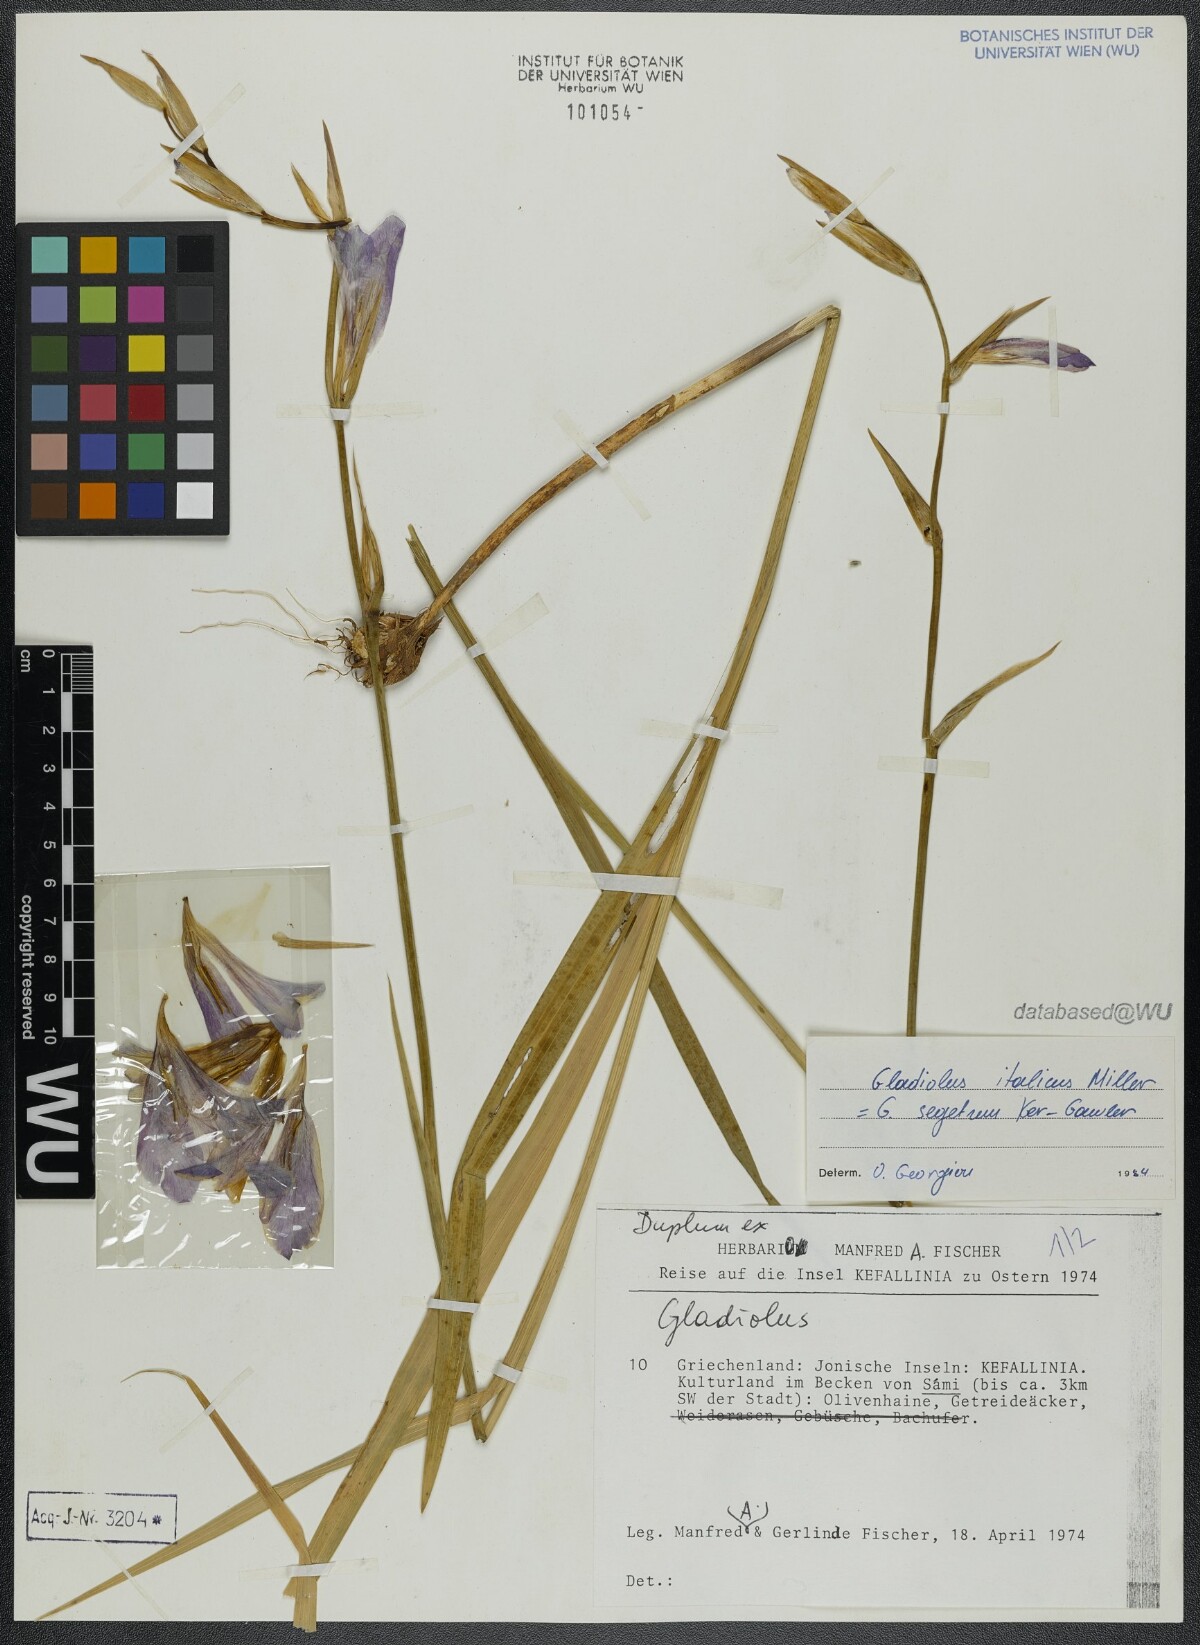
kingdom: Plantae
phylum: Tracheophyta
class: Liliopsida
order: Asparagales
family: Iridaceae
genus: Gladiolus
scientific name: Gladiolus italicus
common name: Field gladiolus
